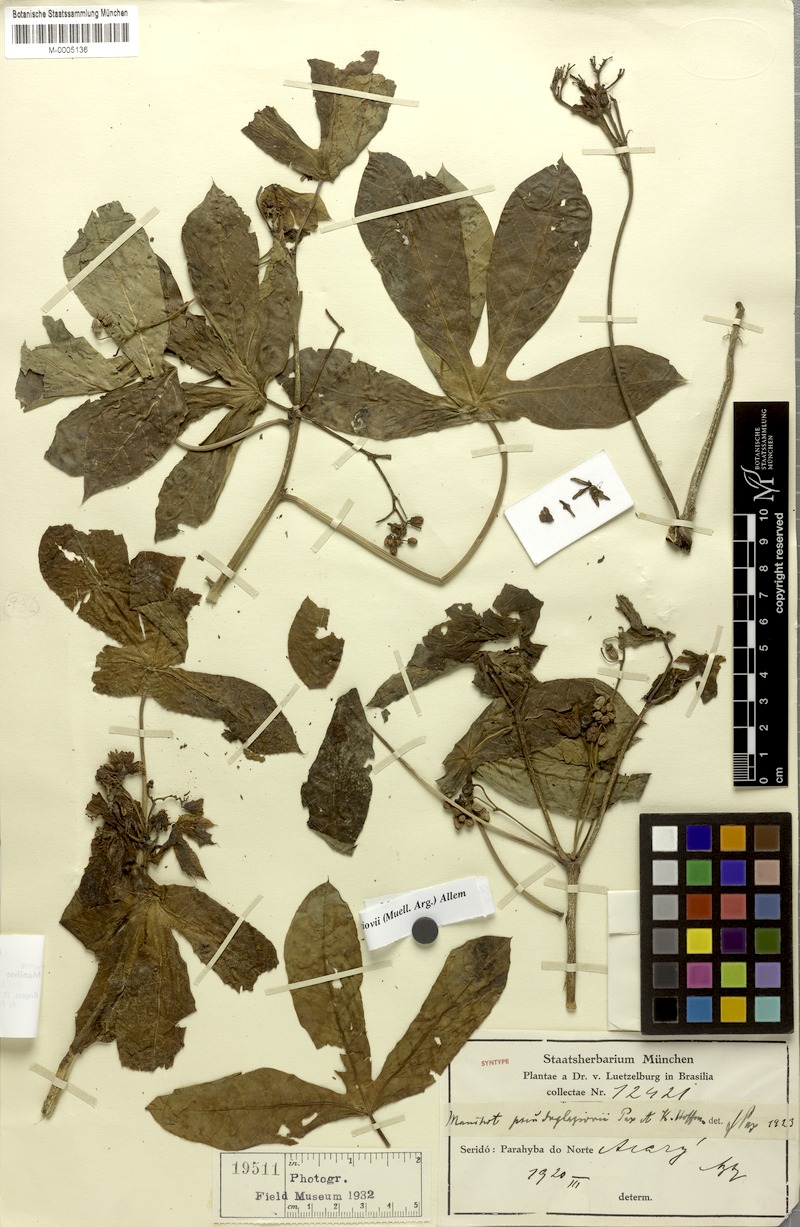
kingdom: Plantae
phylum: Tracheophyta
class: Magnoliopsida
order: Malpighiales
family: Euphorbiaceae
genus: Manihot
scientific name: Manihot carthaginensis
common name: Ceara rubbertree
